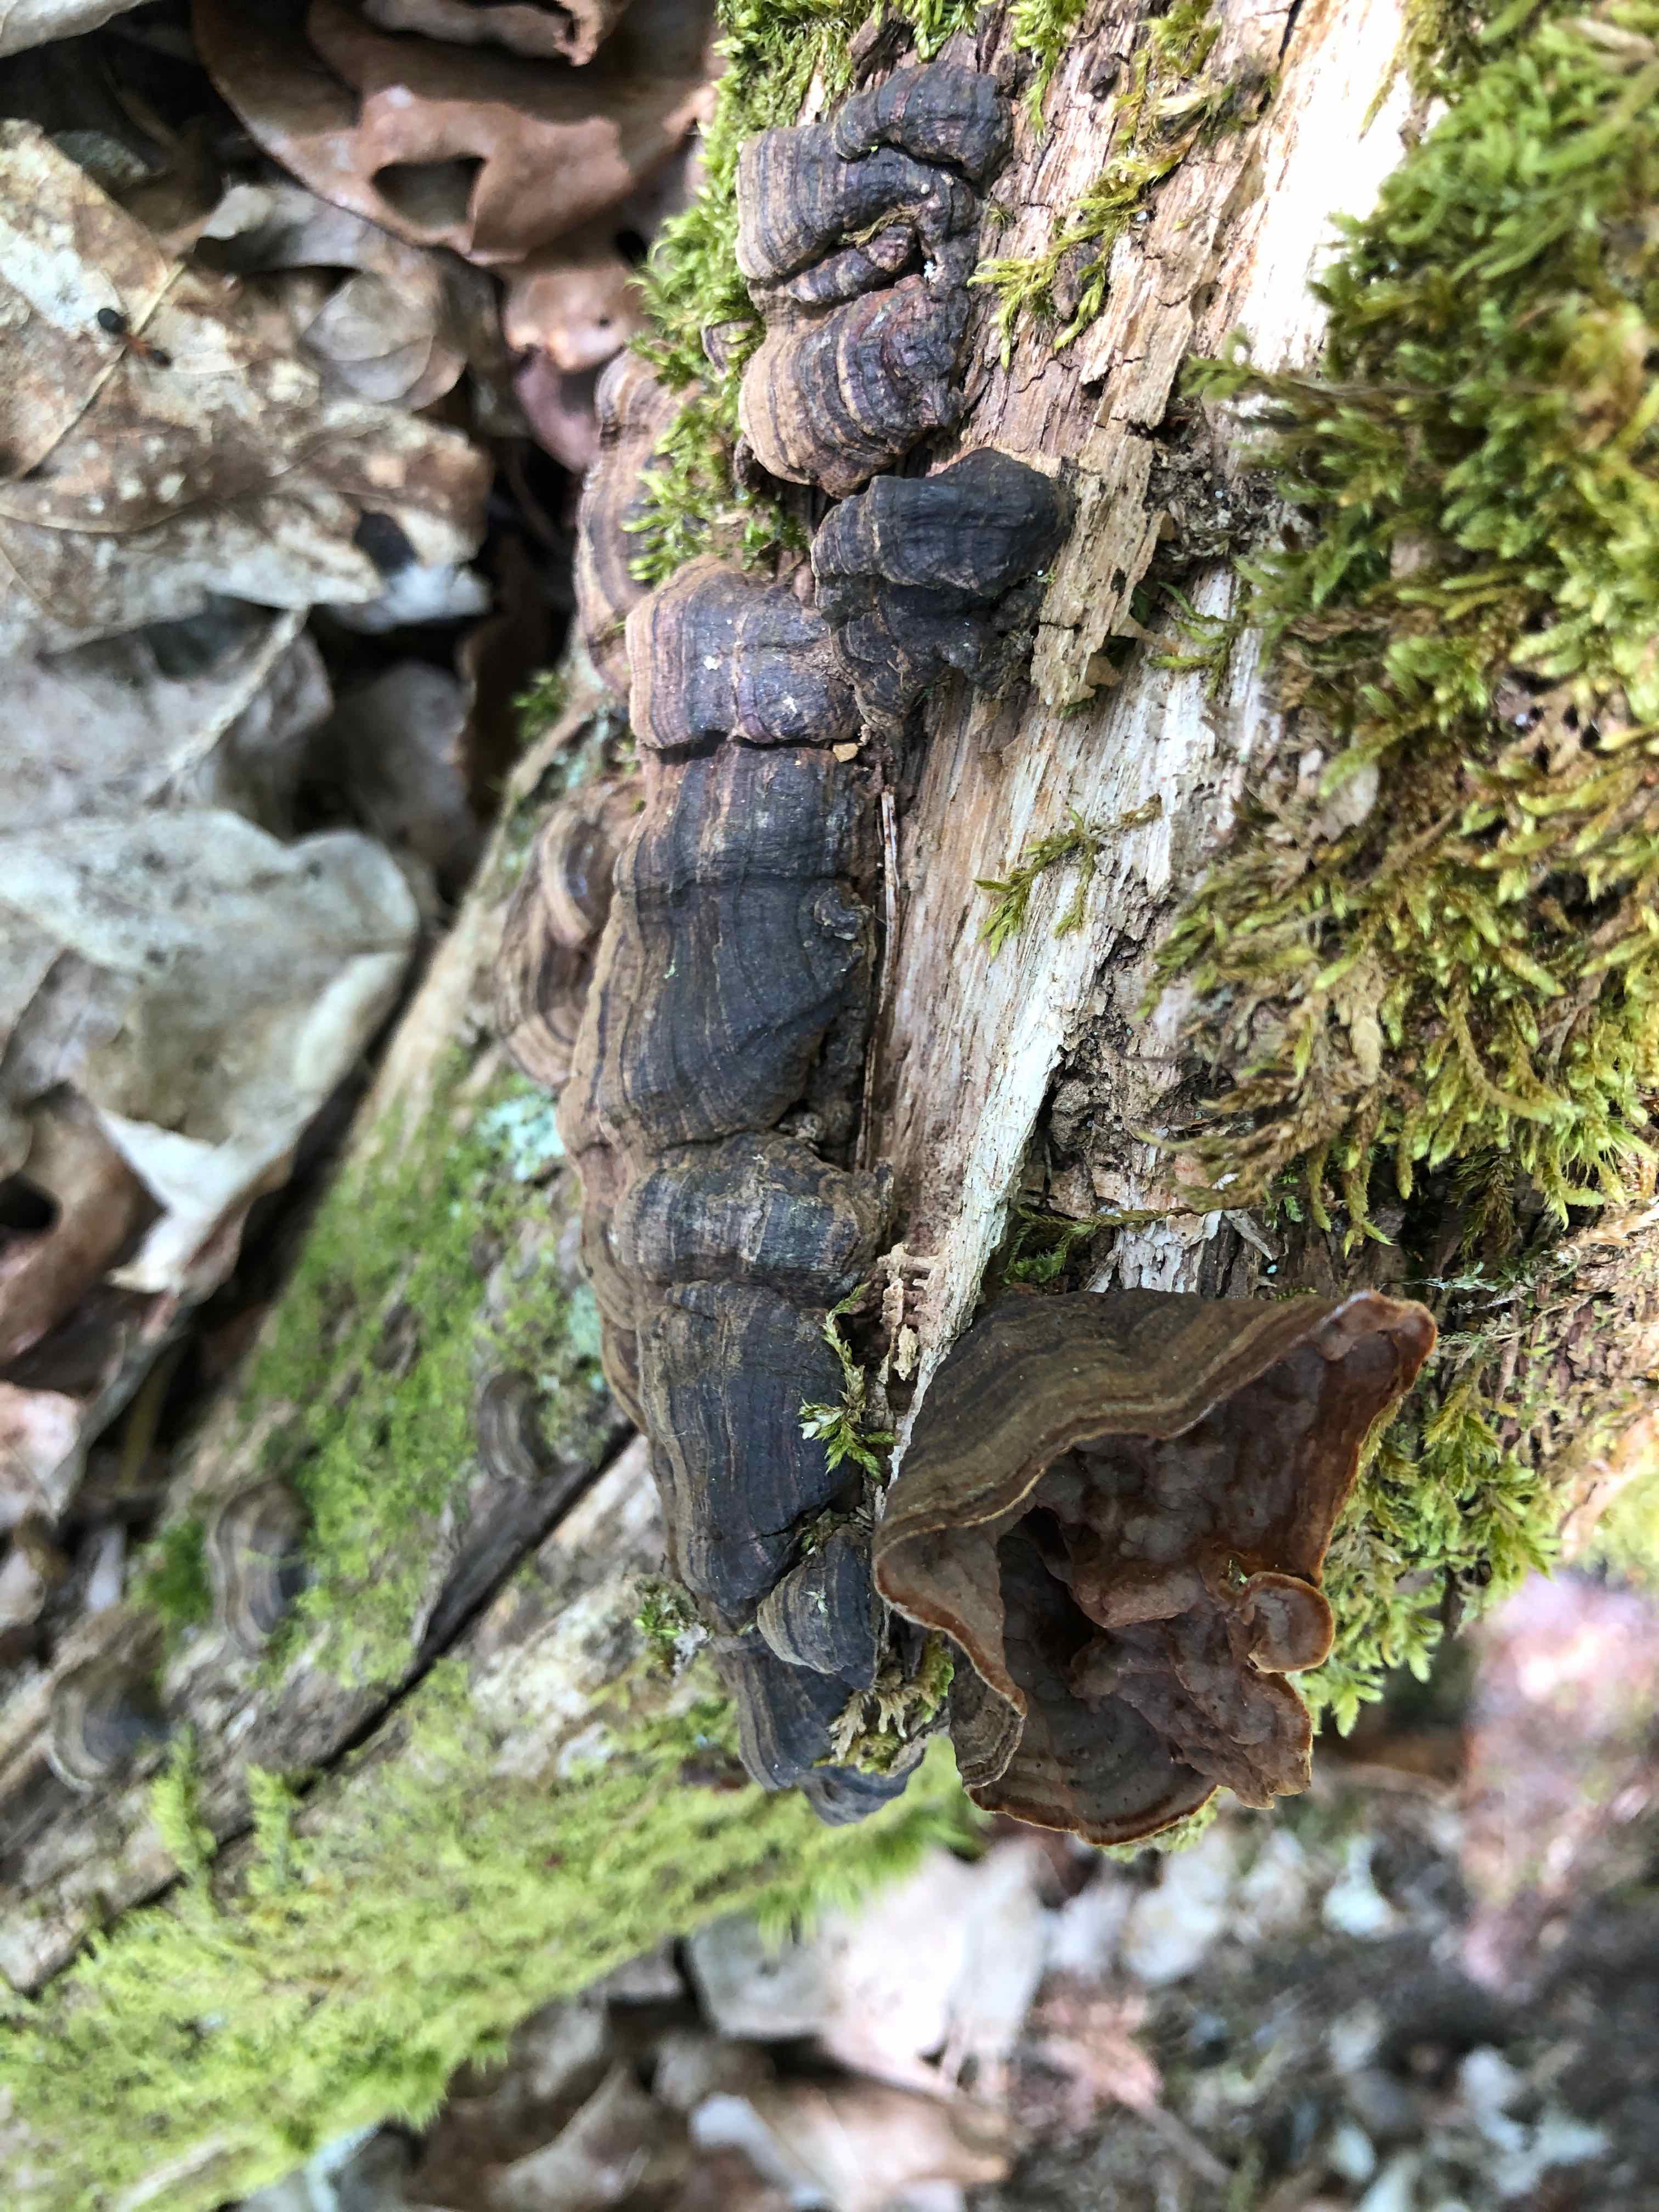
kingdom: Fungi
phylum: Basidiomycota
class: Agaricomycetes
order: Hymenochaetales
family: Hymenochaetaceae
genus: Hymenochaete
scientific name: Hymenochaete rubiginosa
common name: stiv ruslædersvamp
